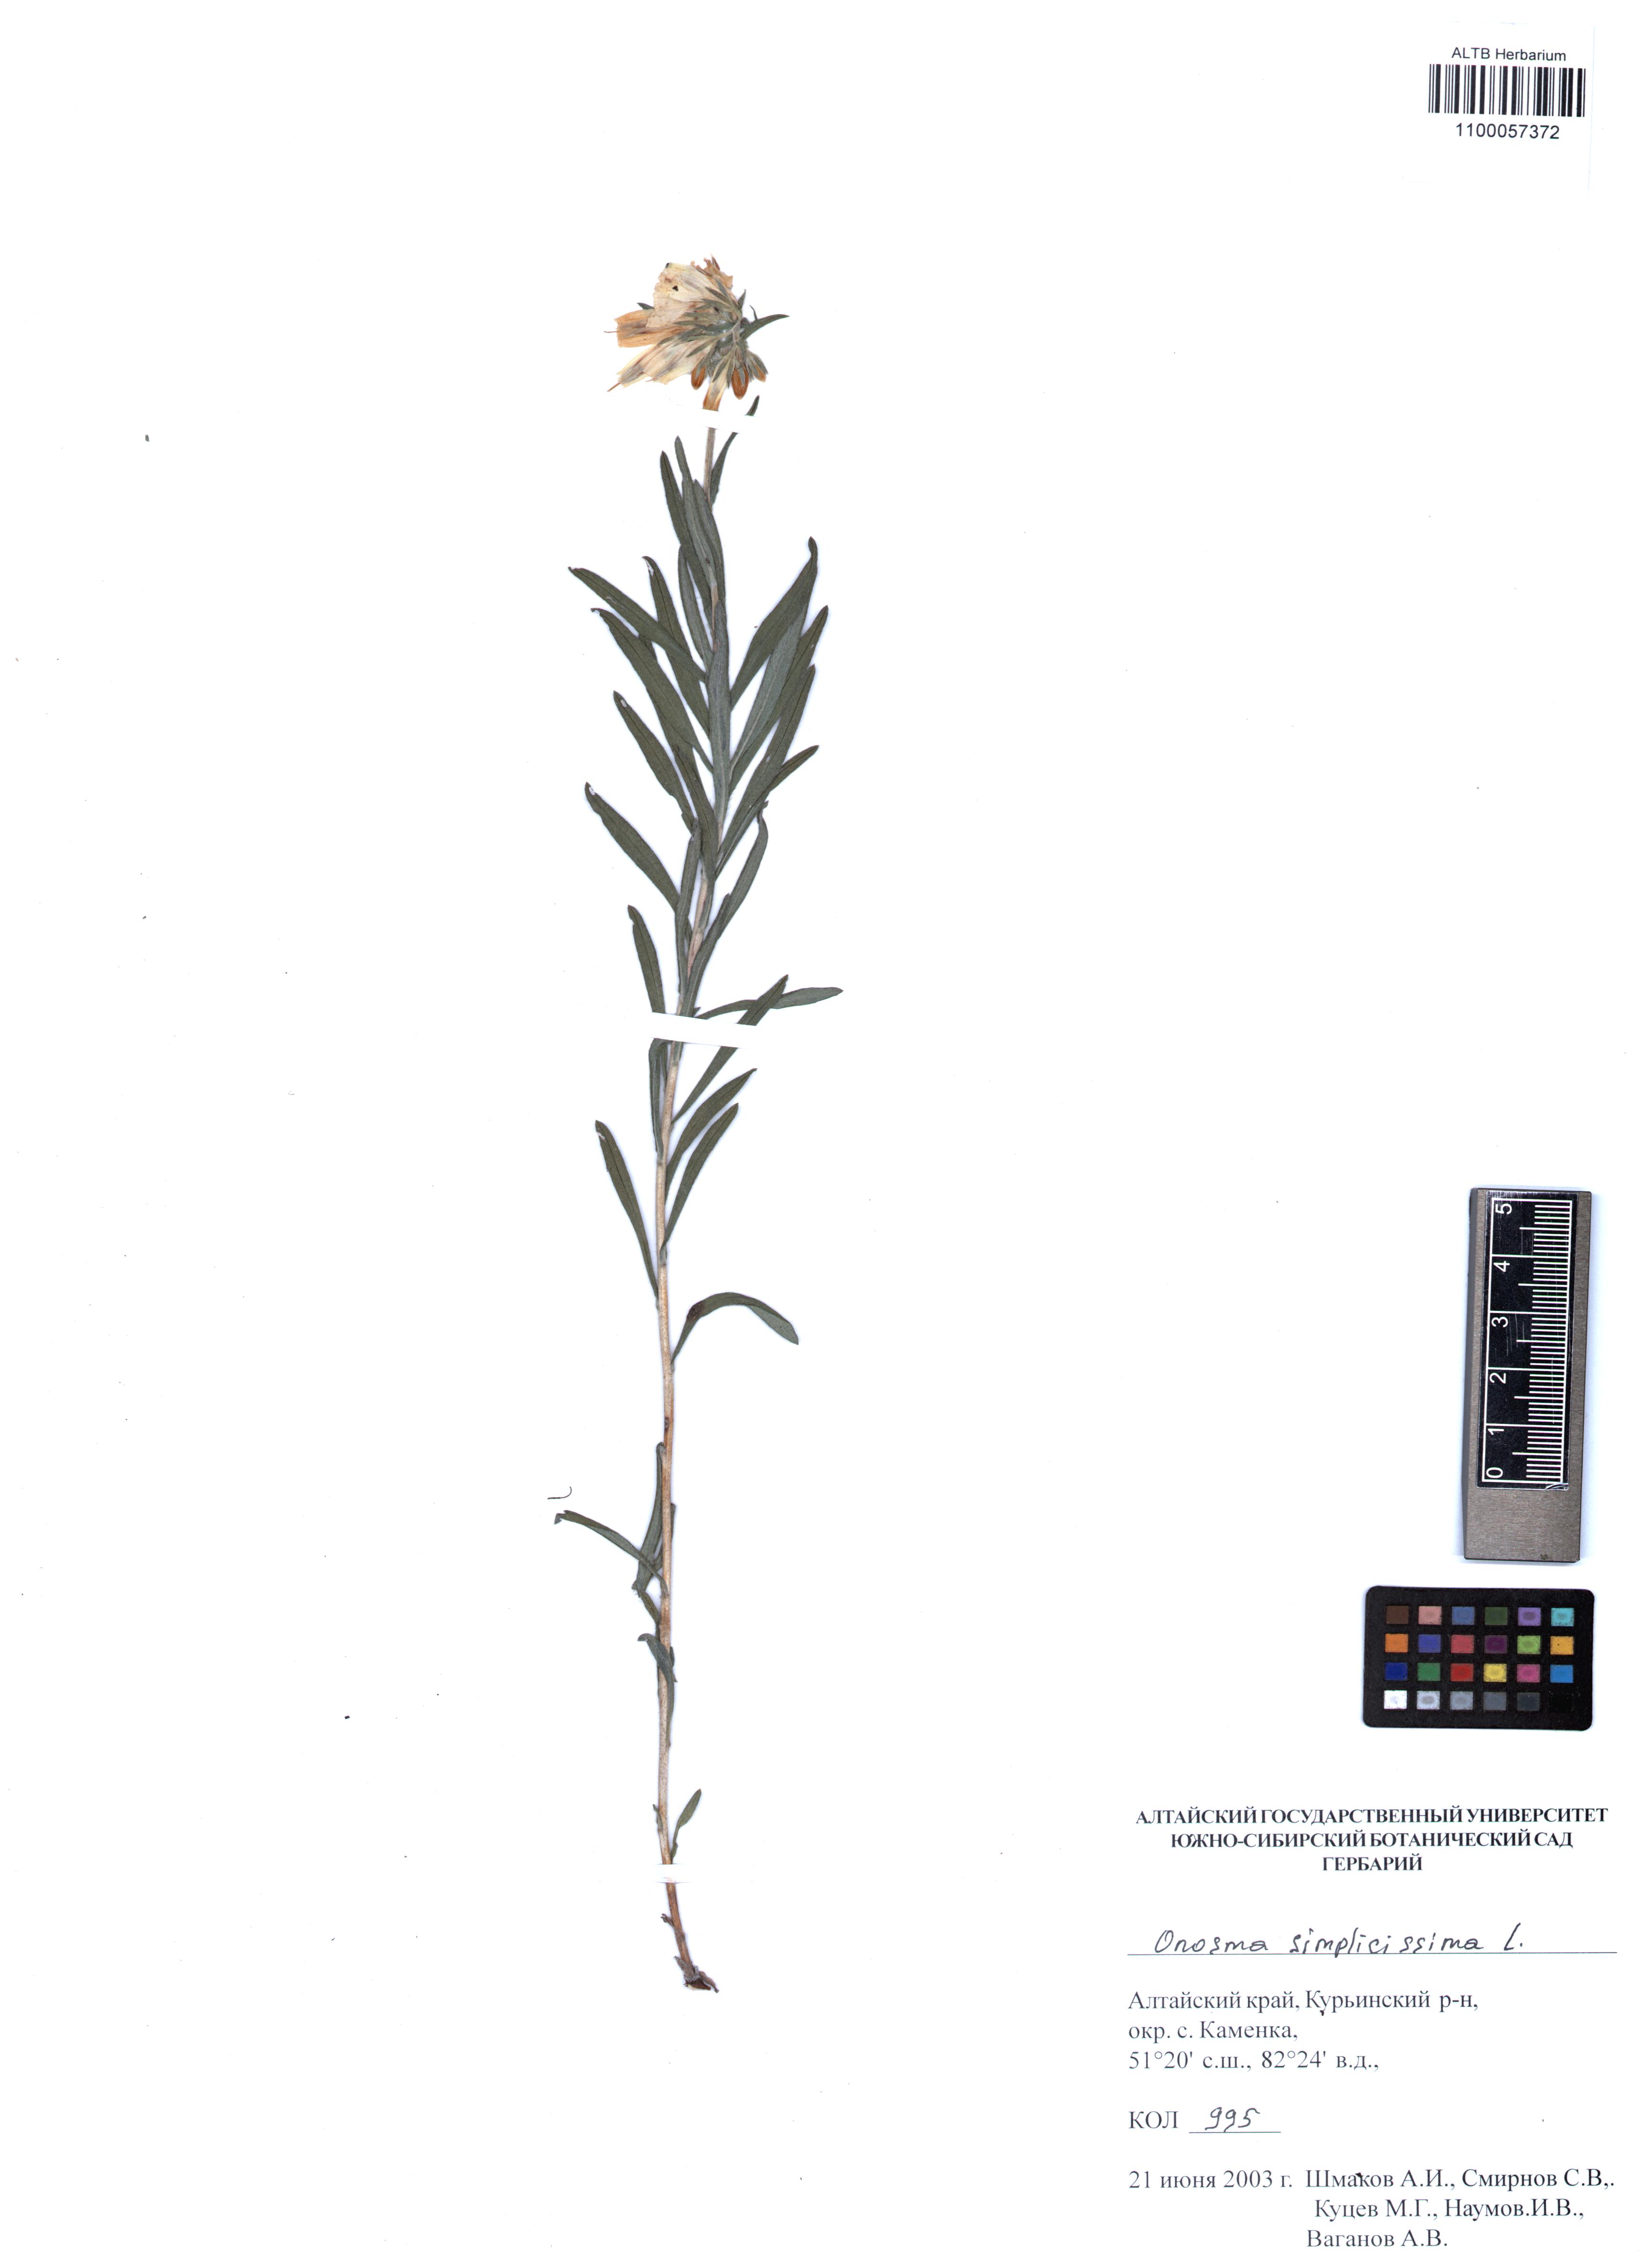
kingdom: Plantae
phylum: Tracheophyta
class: Magnoliopsida
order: Boraginales
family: Boraginaceae
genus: Onosma
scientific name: Onosma simplicissima
